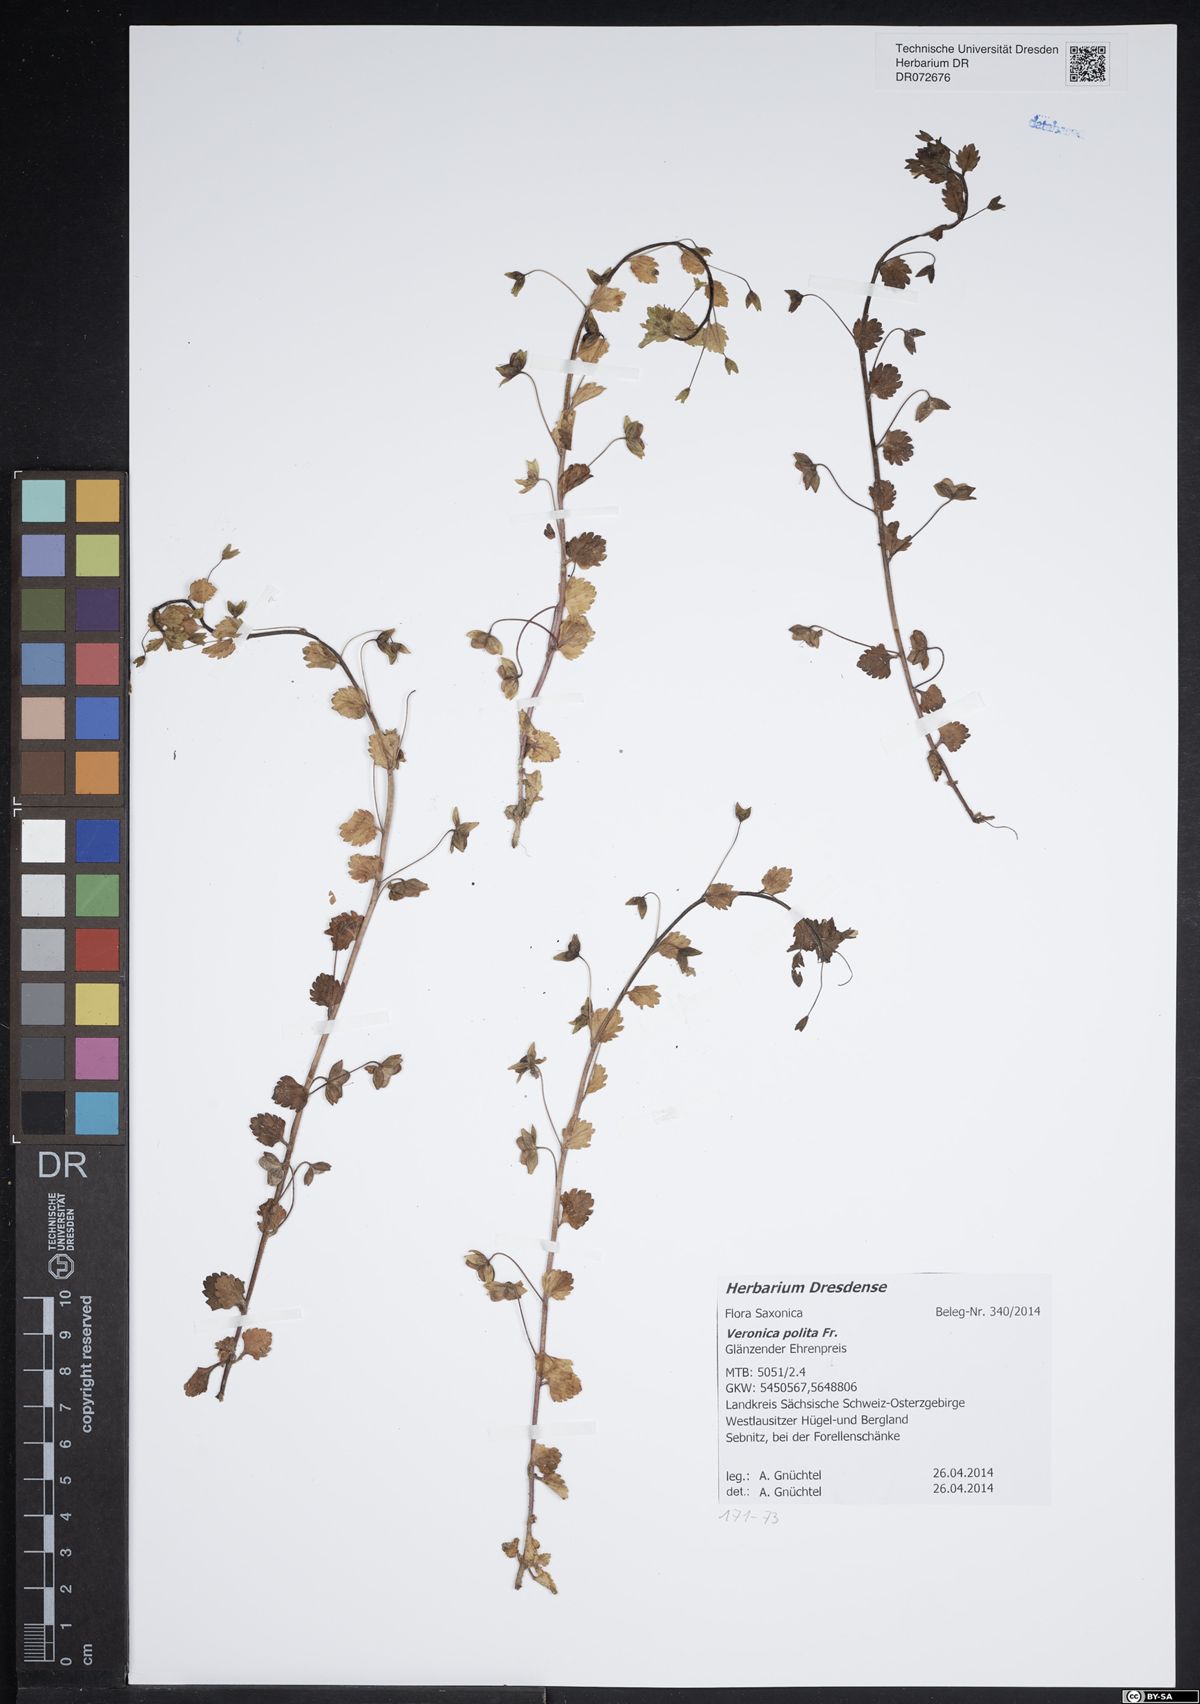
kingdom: Plantae
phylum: Tracheophyta
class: Magnoliopsida
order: Lamiales
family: Plantaginaceae
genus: Veronica
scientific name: Veronica polita
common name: Grey field-speedwell
